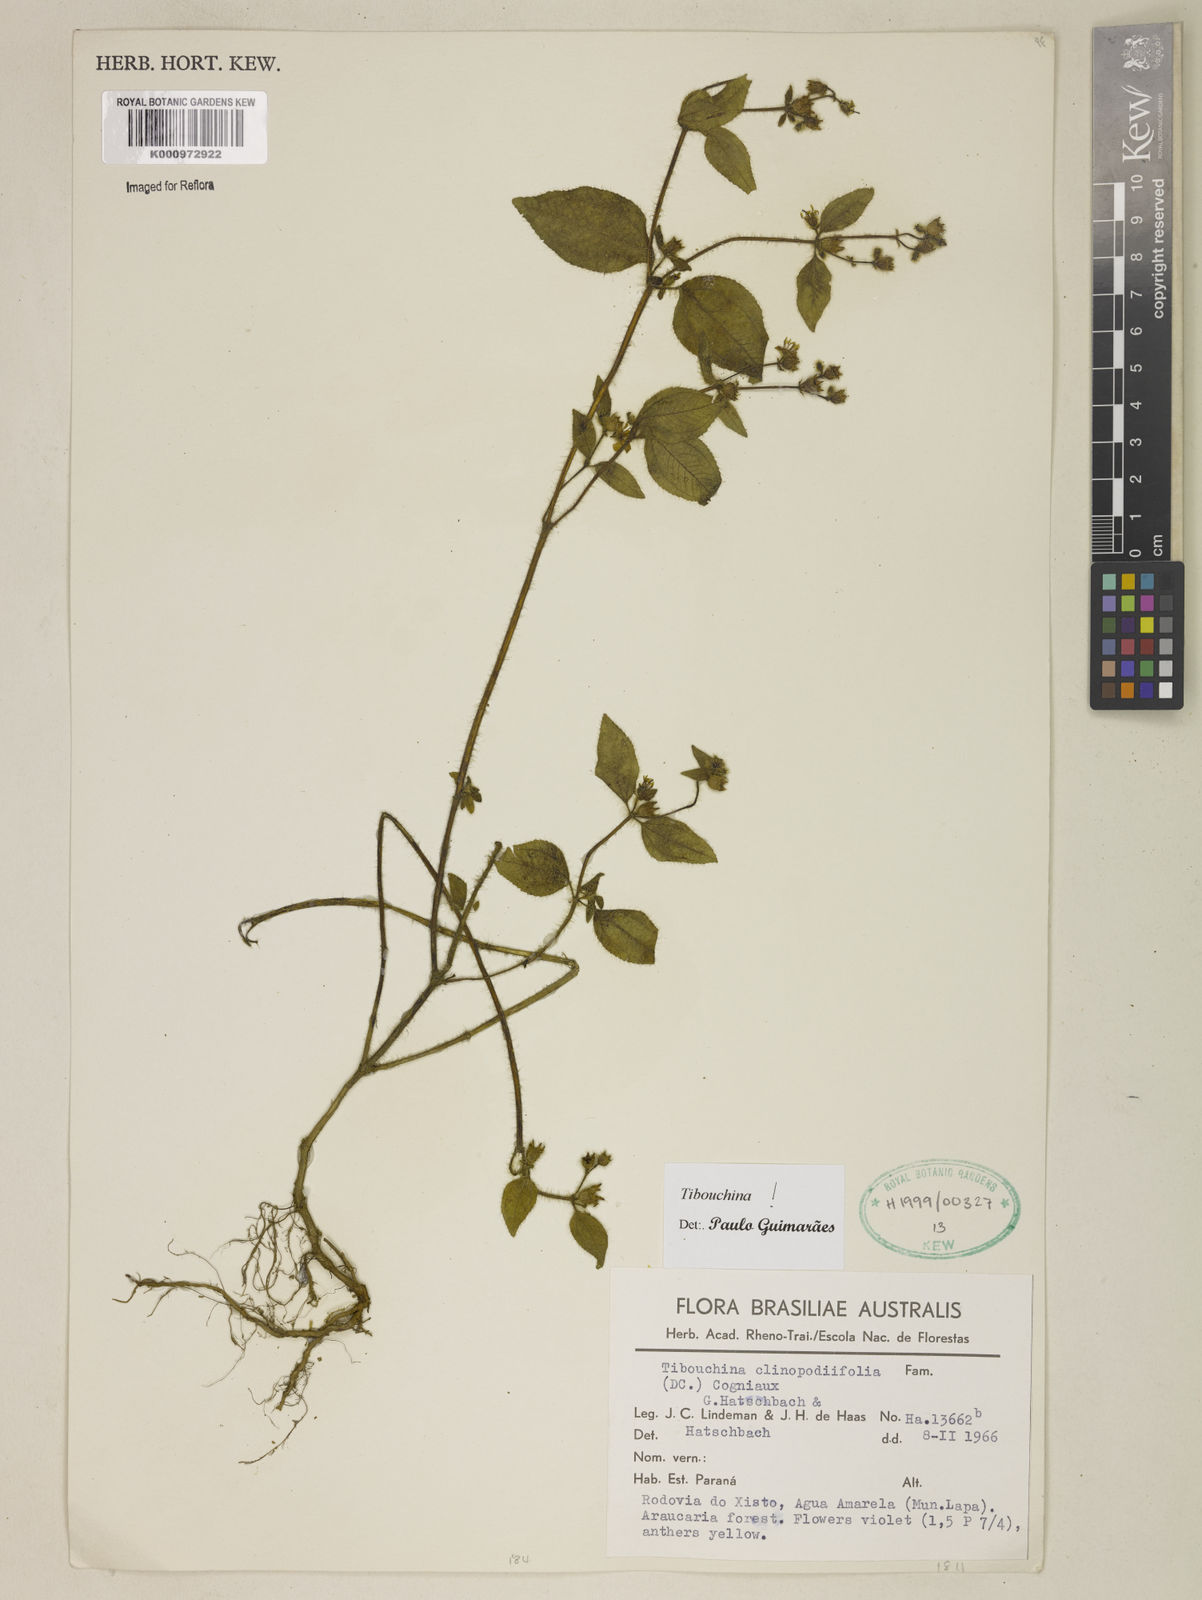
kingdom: Plantae
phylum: Tracheophyta
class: Magnoliopsida
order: Myrtales
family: Melastomataceae
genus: Chaetogastra
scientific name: Chaetogastra clinopodifolia
